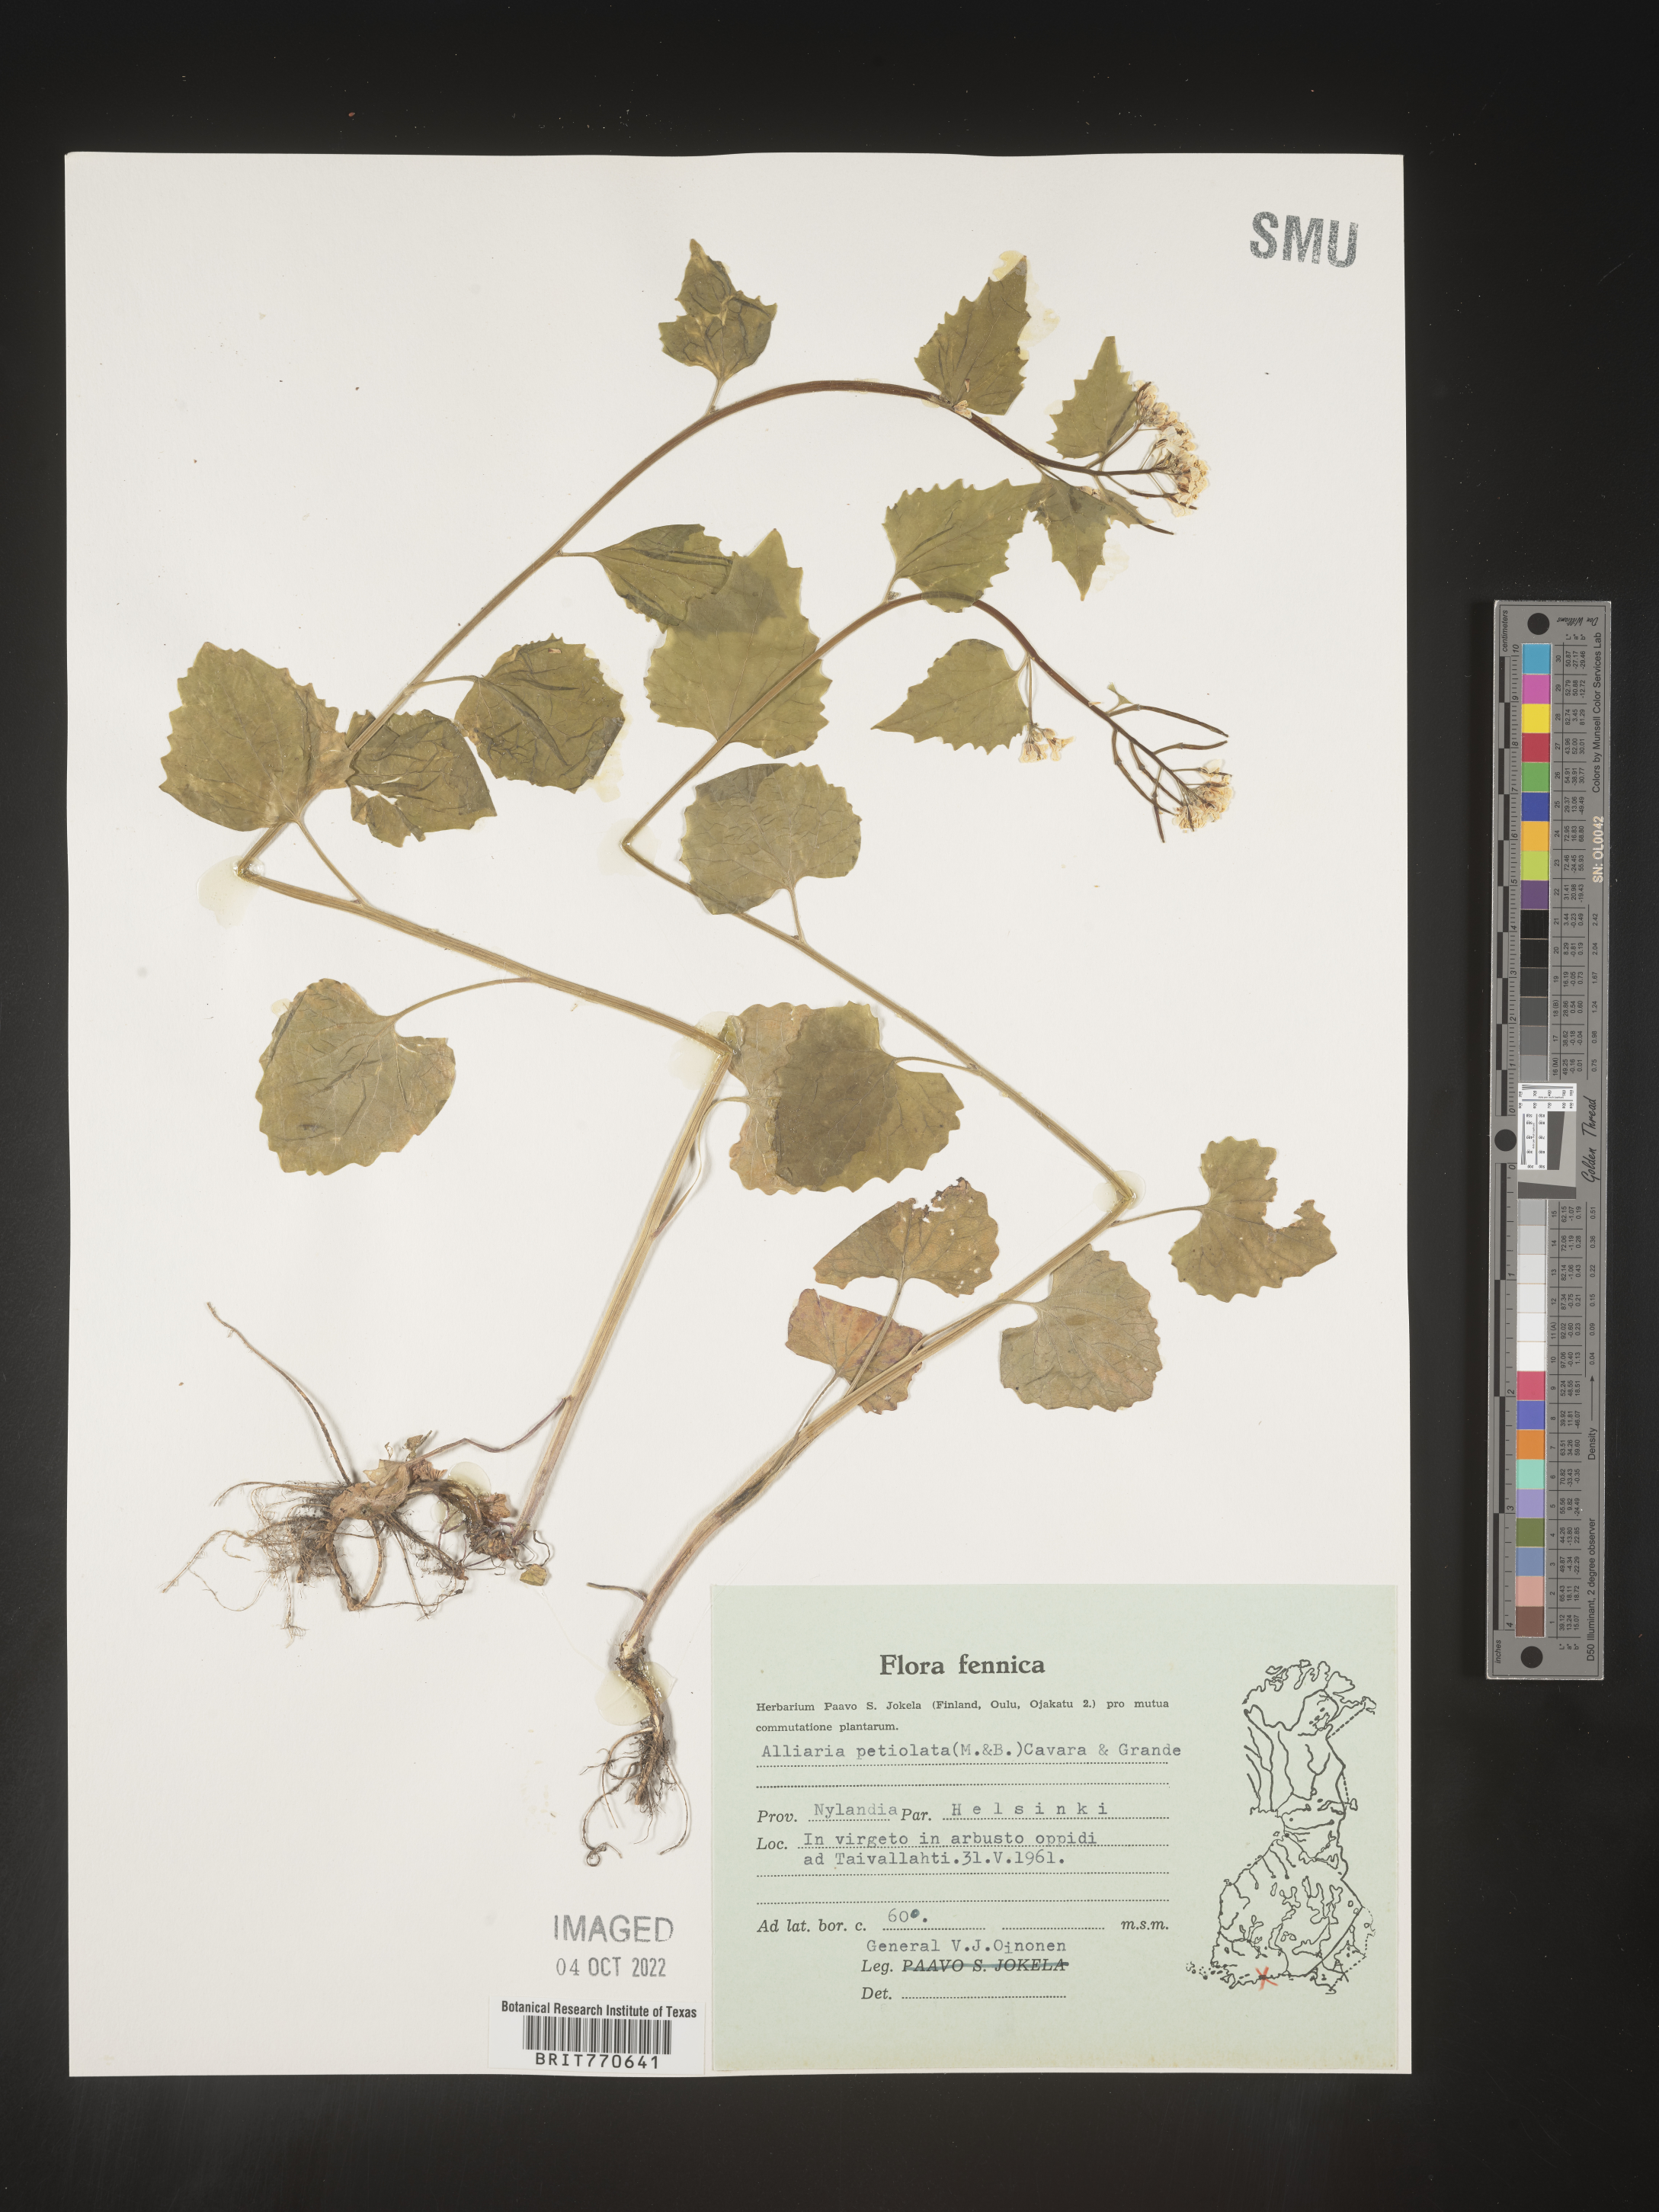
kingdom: Plantae
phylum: Tracheophyta
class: Magnoliopsida
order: Brassicales
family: Brassicaceae
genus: Alliaria
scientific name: Alliaria
